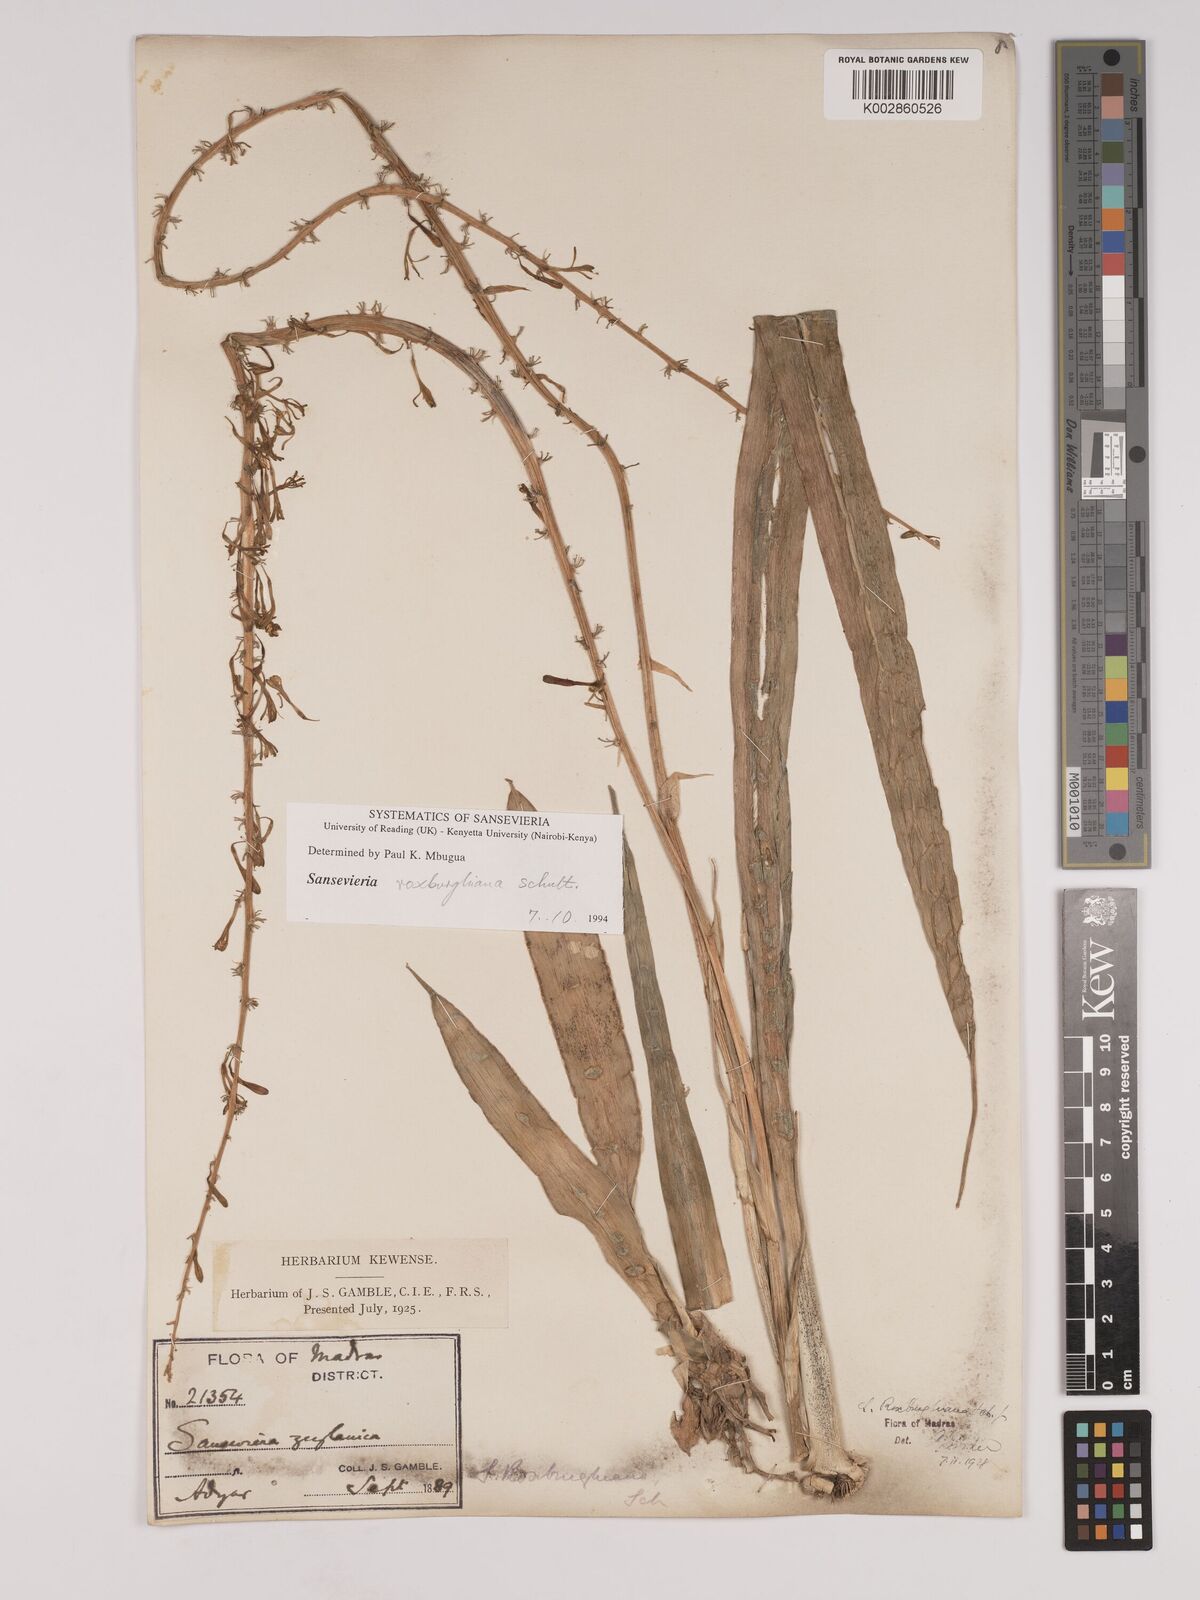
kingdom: Plantae
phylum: Tracheophyta
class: Liliopsida
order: Asparagales
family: Asparagaceae
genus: Dracaena
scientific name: Dracaena roxburghiana
